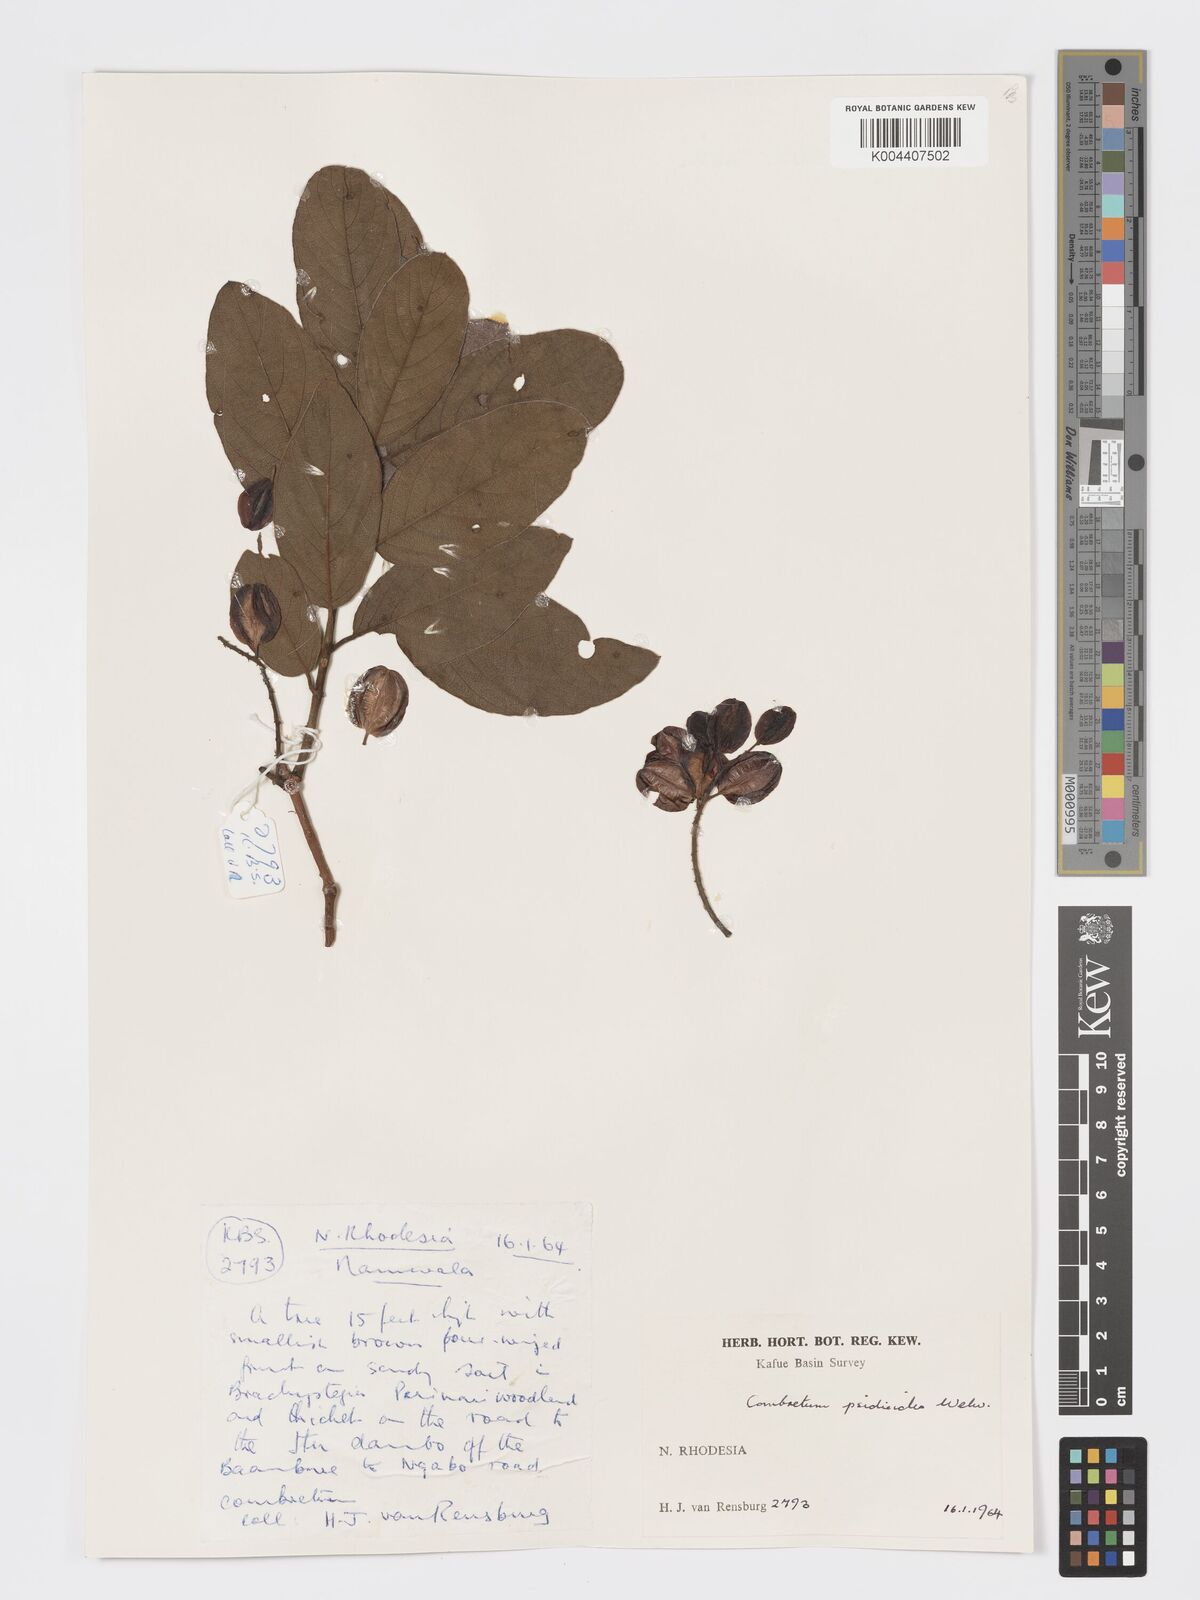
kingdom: Plantae
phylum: Tracheophyta
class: Magnoliopsida
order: Myrtales
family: Combretaceae
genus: Combretum
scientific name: Combretum psidioides
